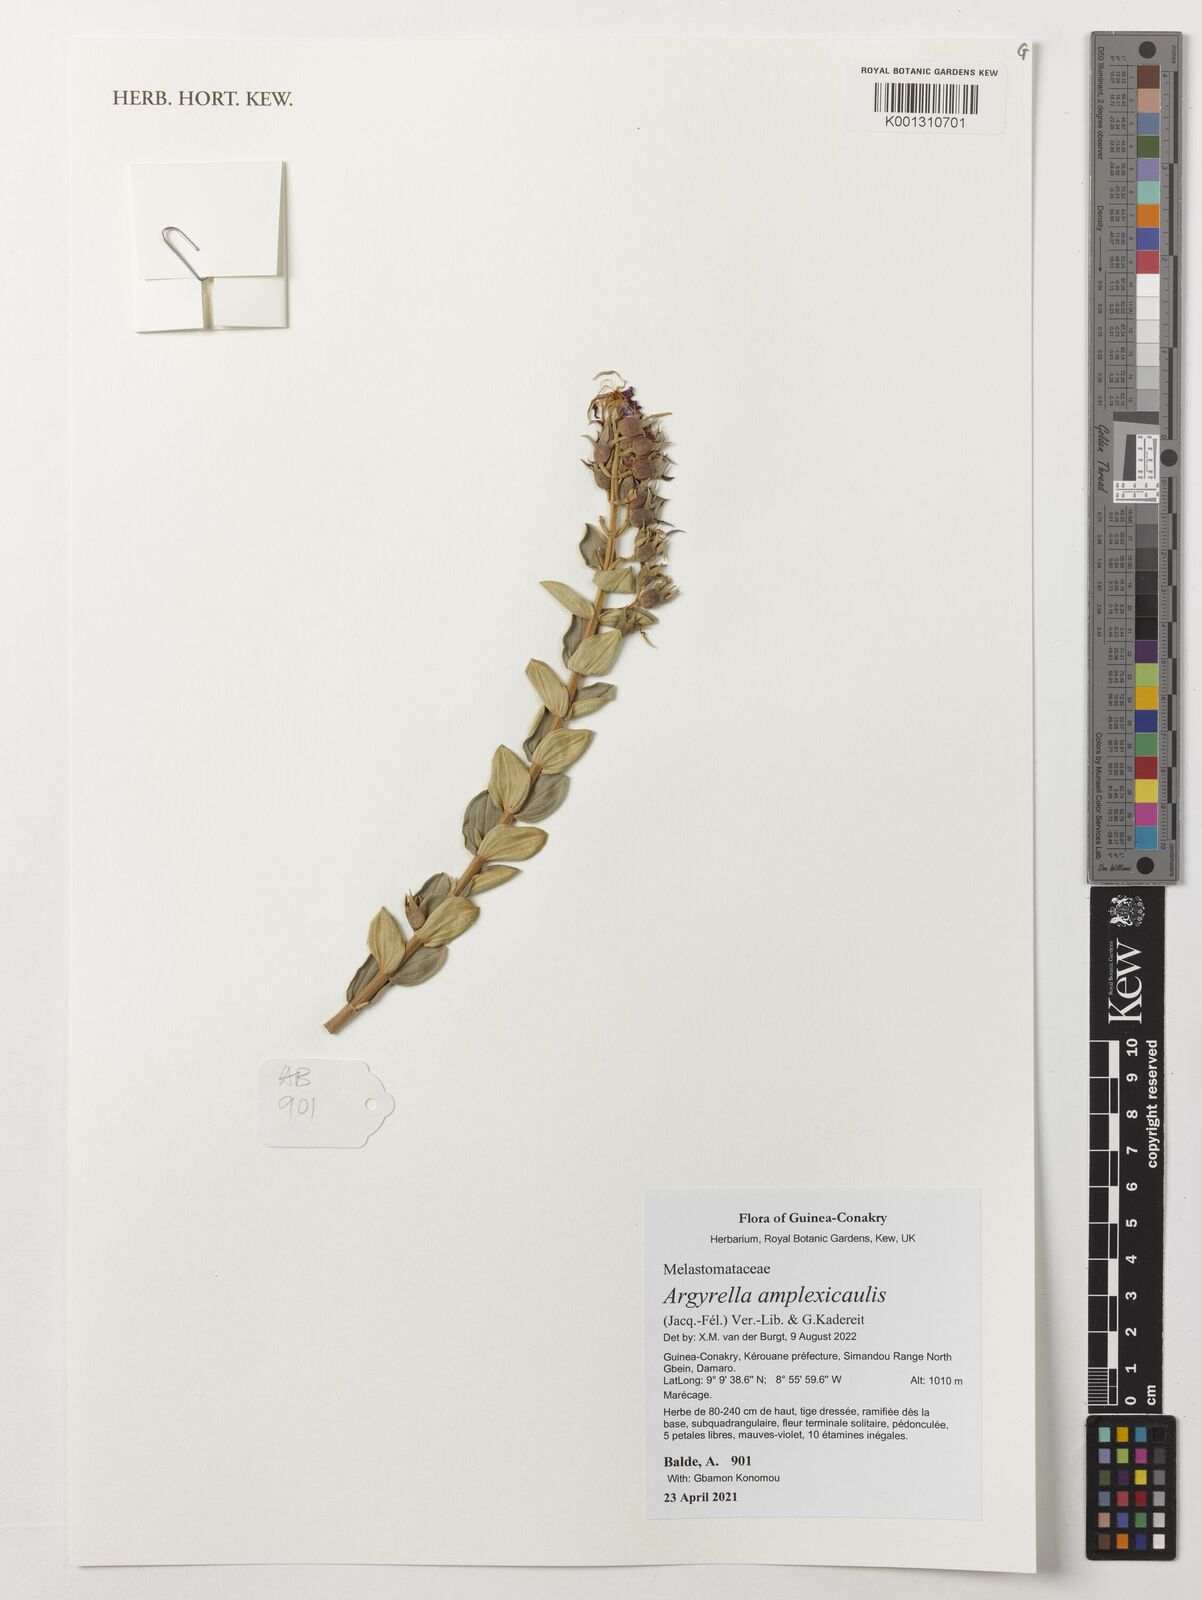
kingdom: Plantae
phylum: Tracheophyta
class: Magnoliopsida
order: Myrtales
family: Melastomataceae
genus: Argyrella
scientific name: Argyrella amplexicaulis
